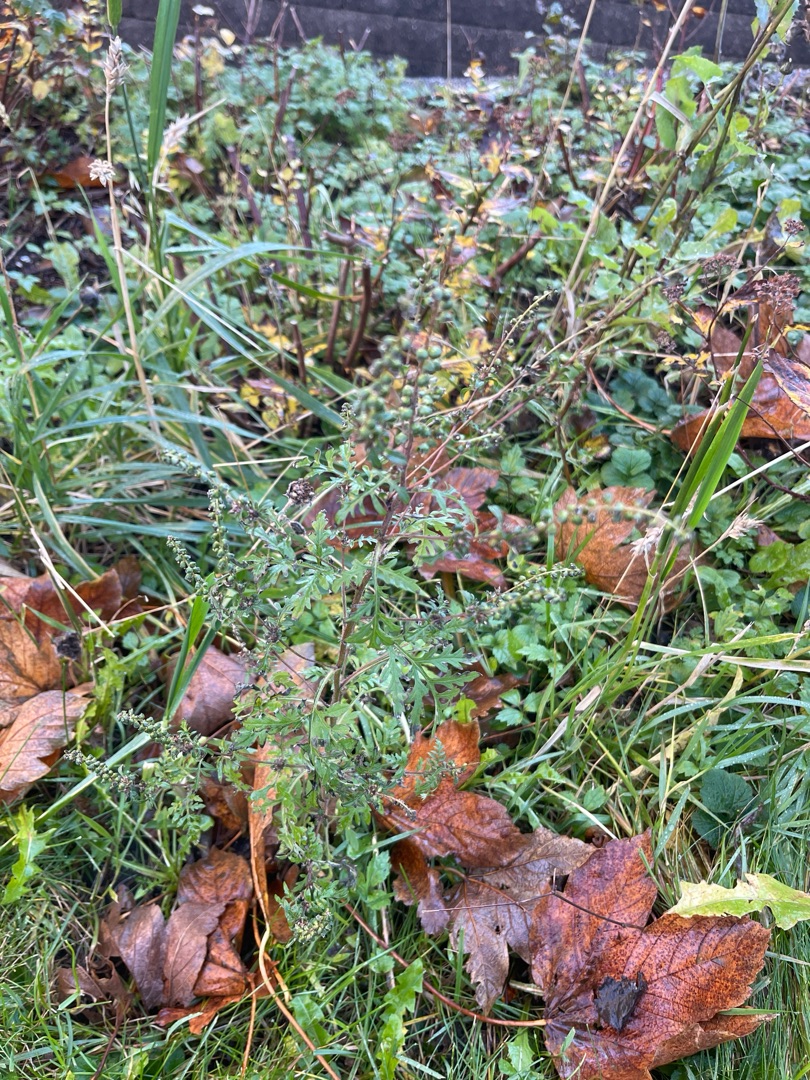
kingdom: Plantae
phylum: Tracheophyta
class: Magnoliopsida
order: Asterales
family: Asteraceae
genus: Artemisia
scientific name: Artemisia vulgaris
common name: Grå-bynke
